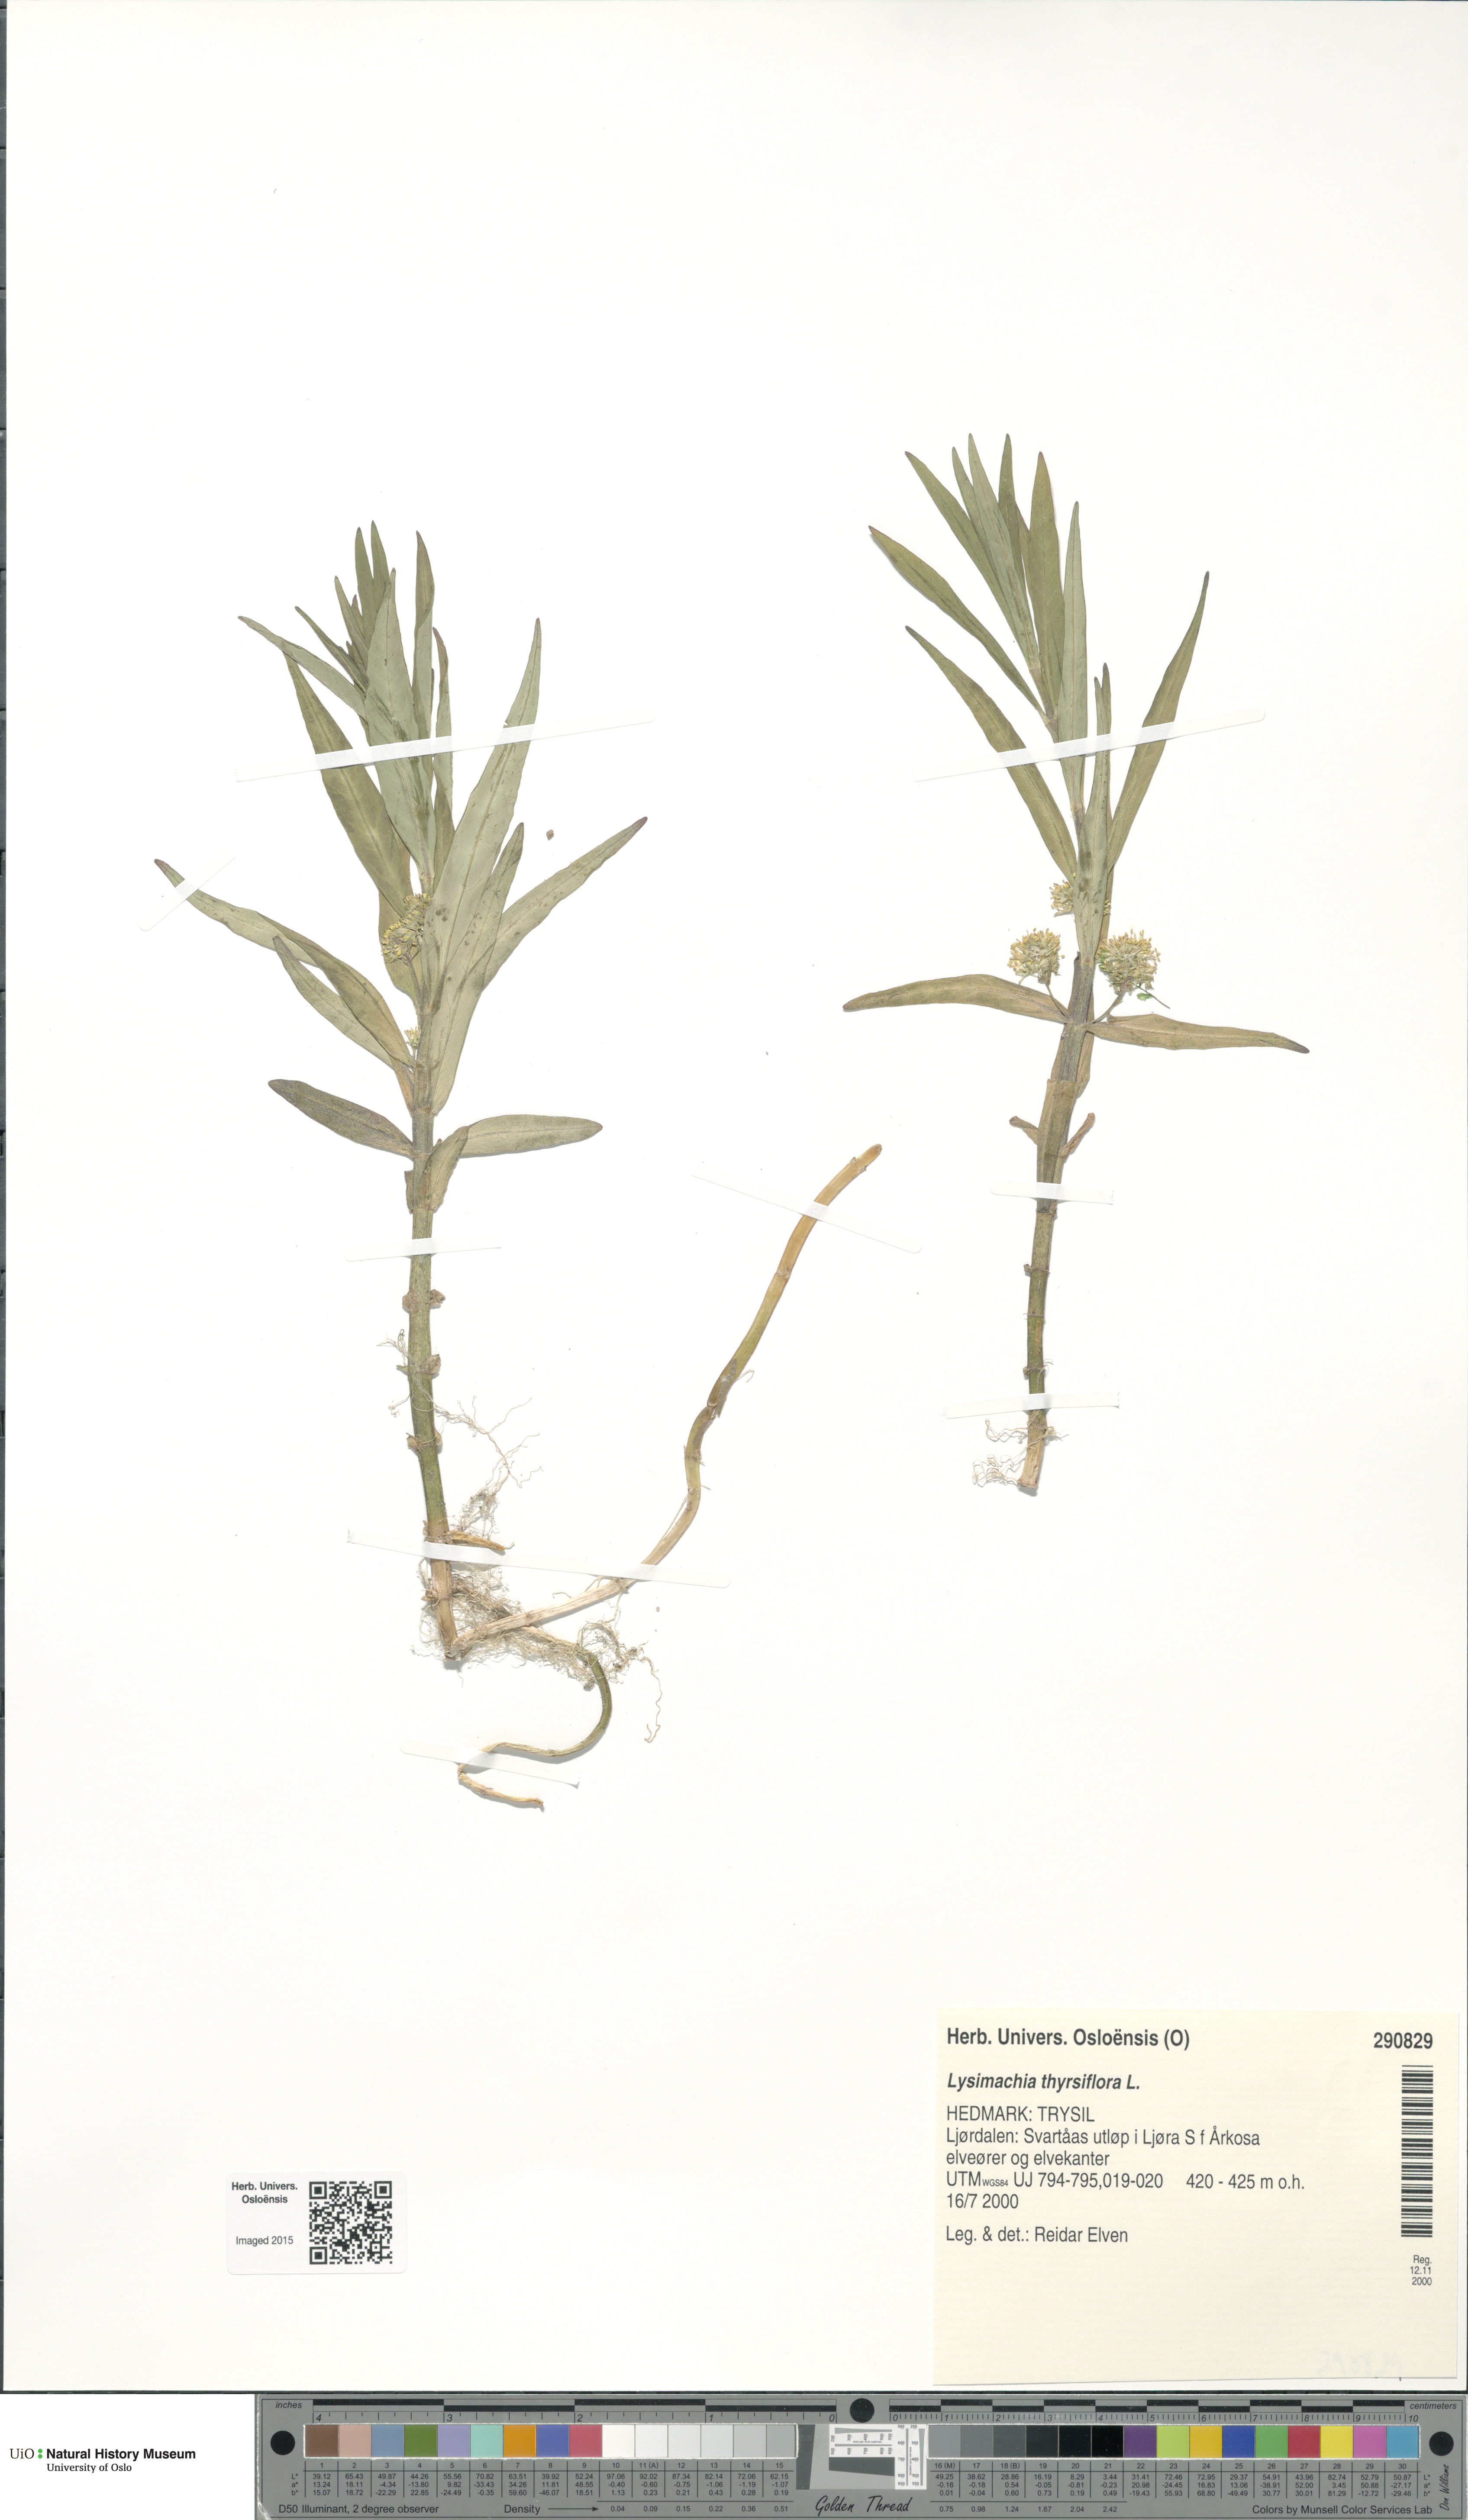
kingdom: Plantae
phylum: Tracheophyta
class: Magnoliopsida
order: Ericales
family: Primulaceae
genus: Lysimachia
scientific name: Lysimachia thyrsiflora
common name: Tufted loosestrife
